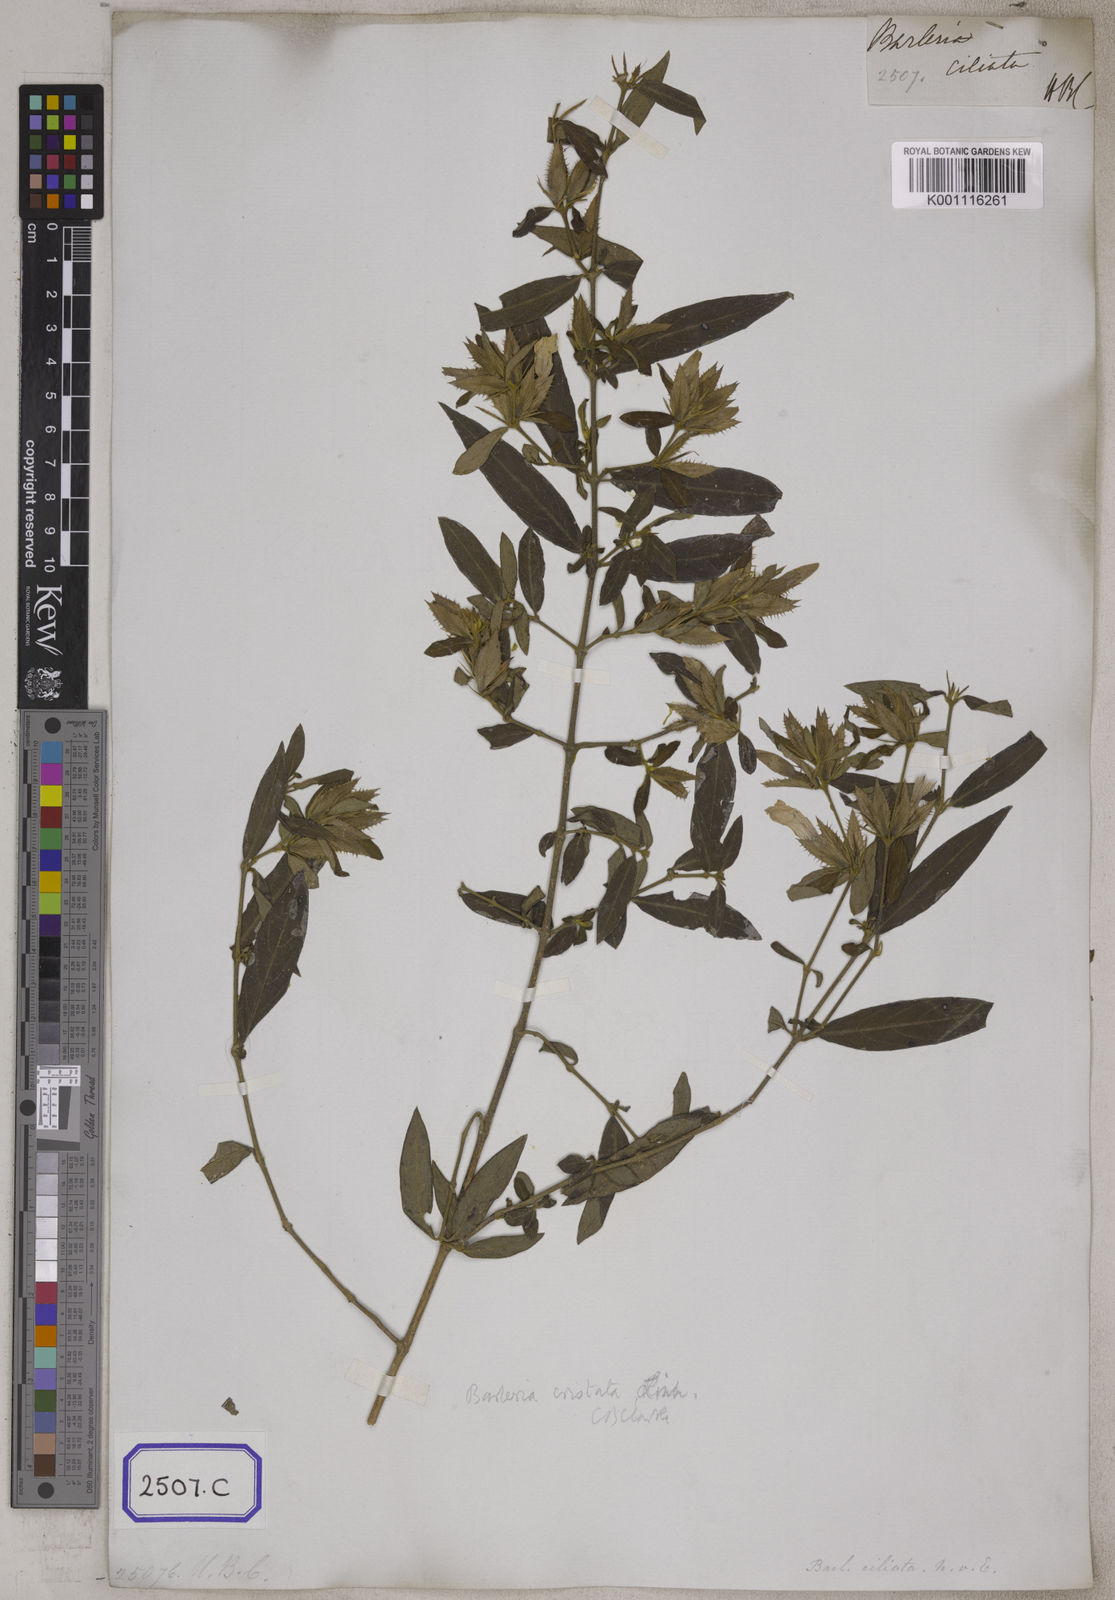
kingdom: Plantae
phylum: Tracheophyta
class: Magnoliopsida
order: Lamiales
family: Acanthaceae
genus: Barleria
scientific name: Barleria cristata
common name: Crested philippine violet
